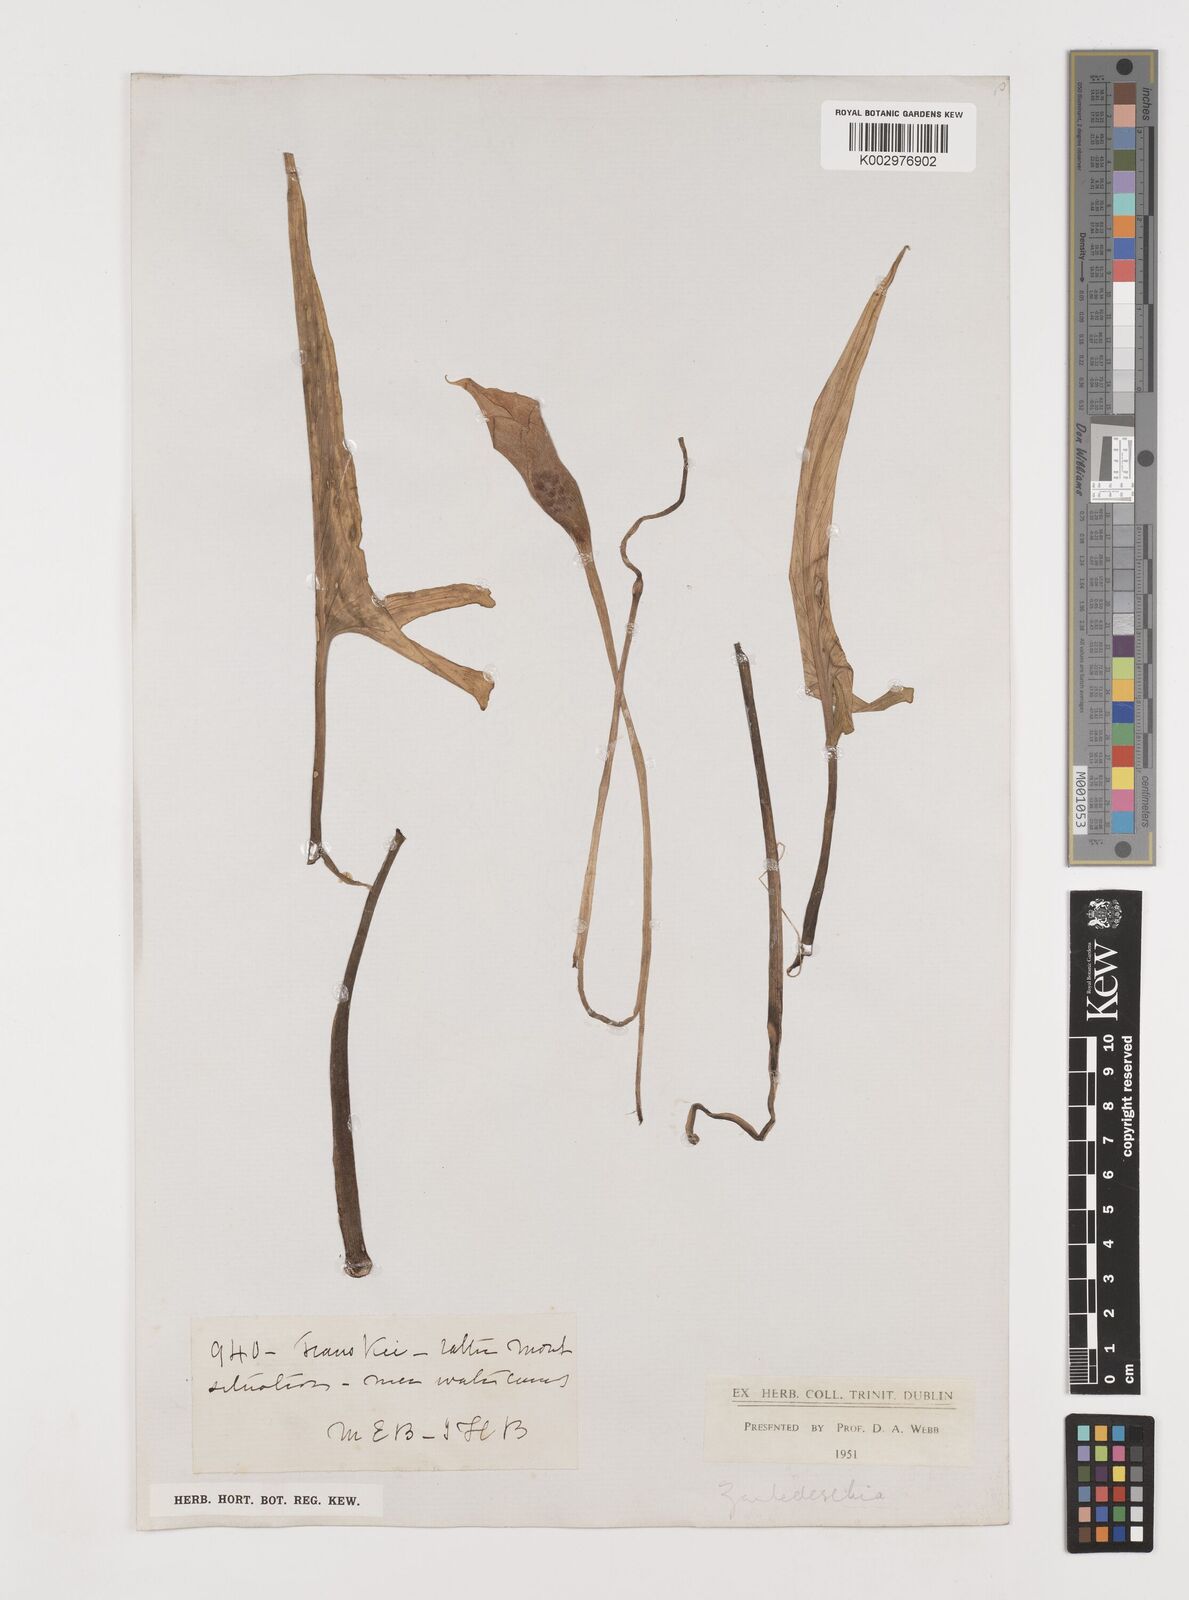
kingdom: Plantae
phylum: Tracheophyta
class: Liliopsida
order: Alismatales
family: Araceae
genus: Zantedeschia
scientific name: Zantedeschia
